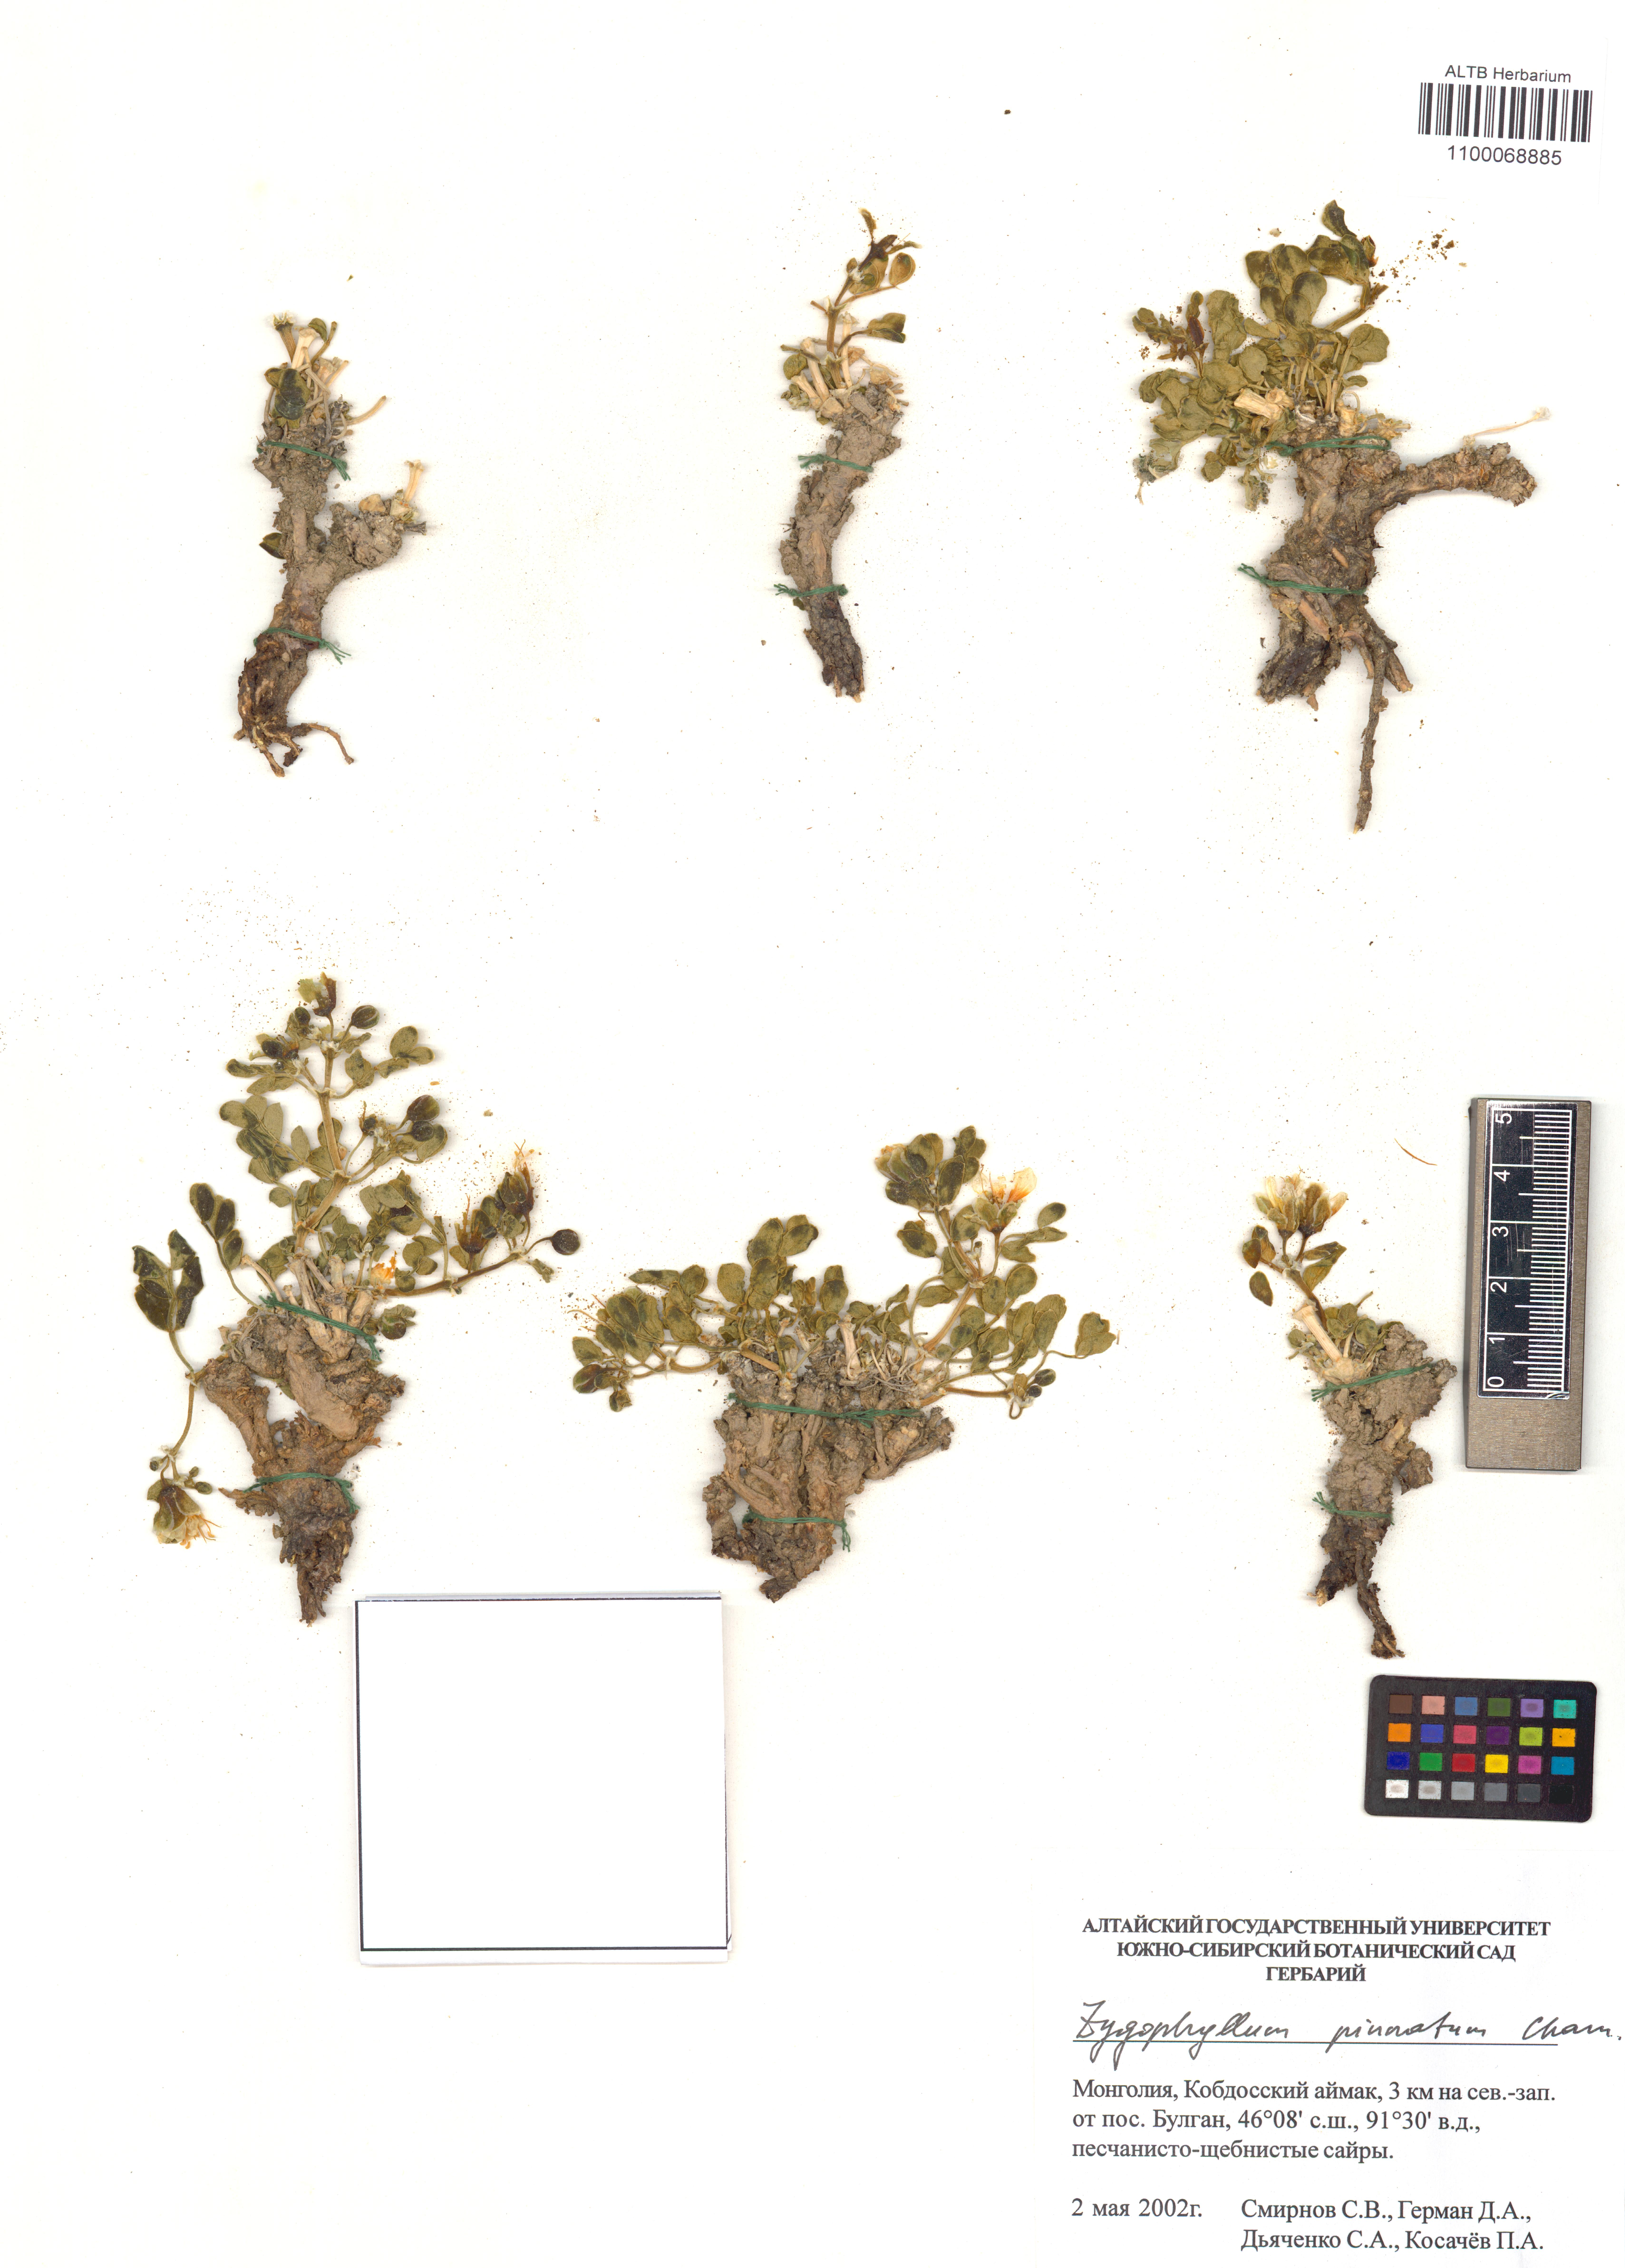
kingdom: Plantae
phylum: Tracheophyta
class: Magnoliopsida
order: Zygophyllales
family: Zygophyllaceae
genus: Zygophyllum
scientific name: Zygophyllum pinnatum
